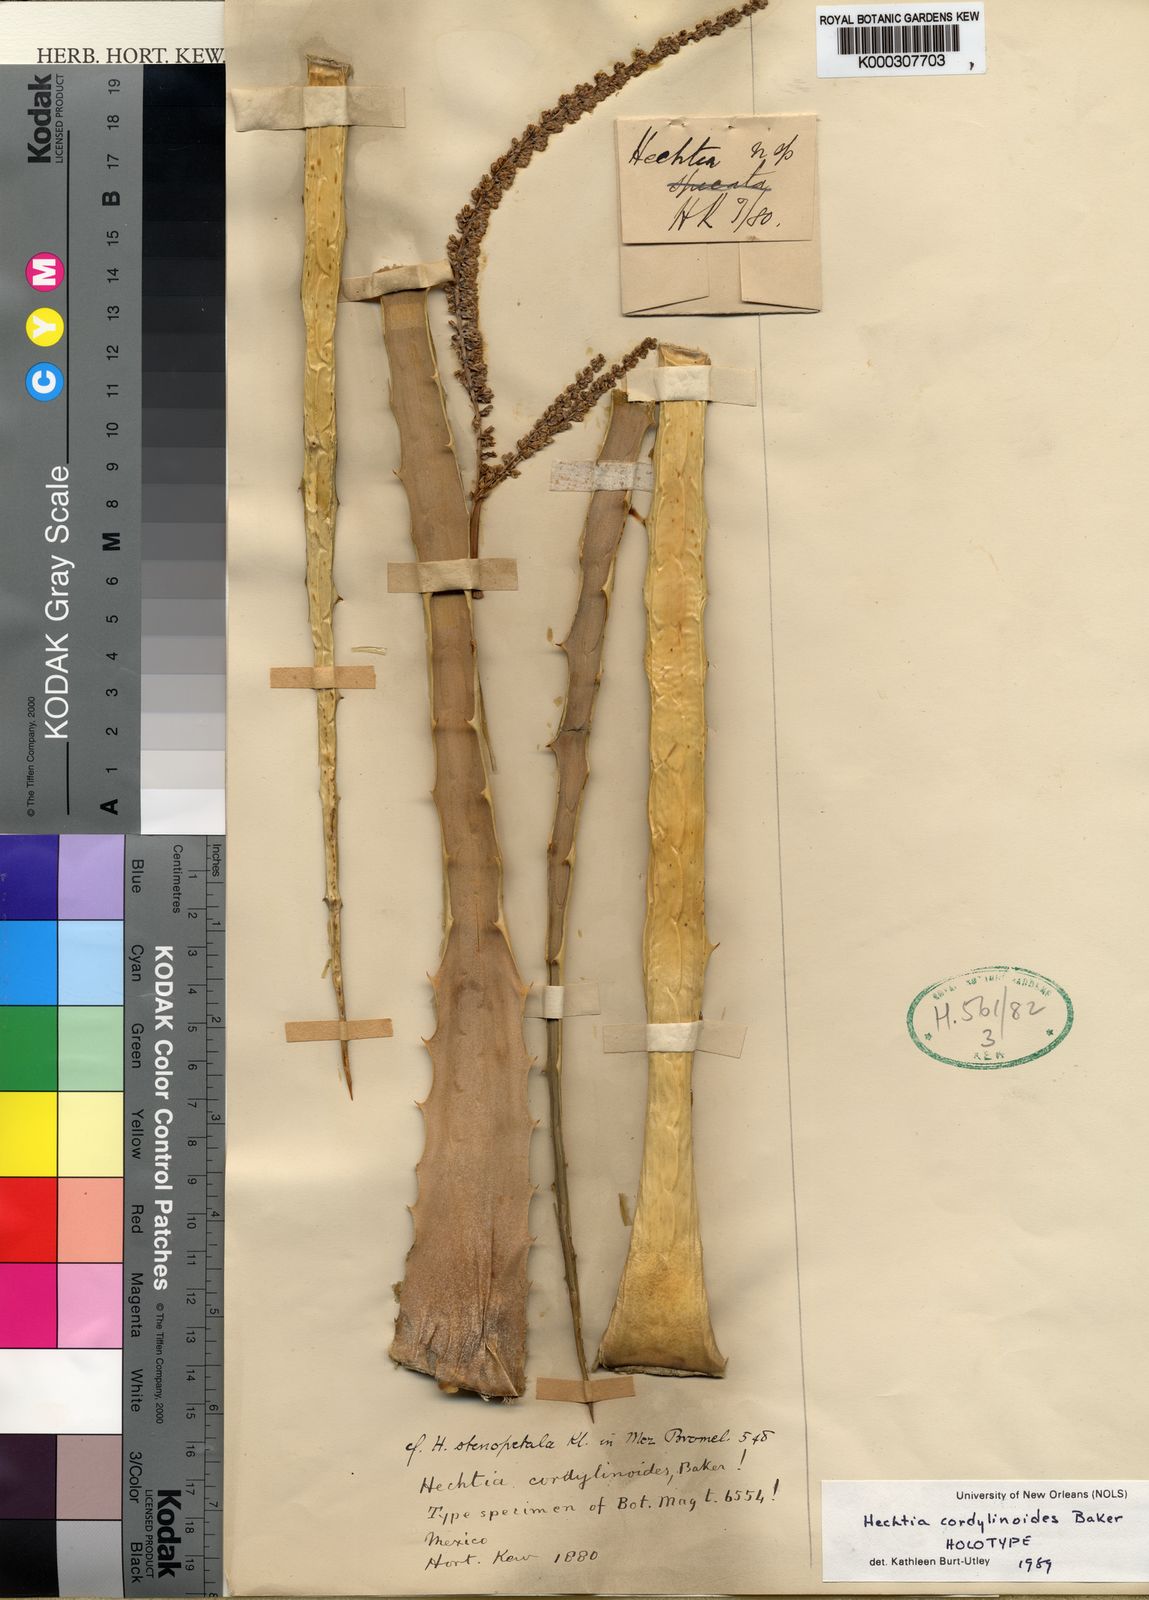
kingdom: Plantae
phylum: Tracheophyta
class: Liliopsida
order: Poales
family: Bromeliaceae
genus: Hechtia
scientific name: Hechtia stenopetala
